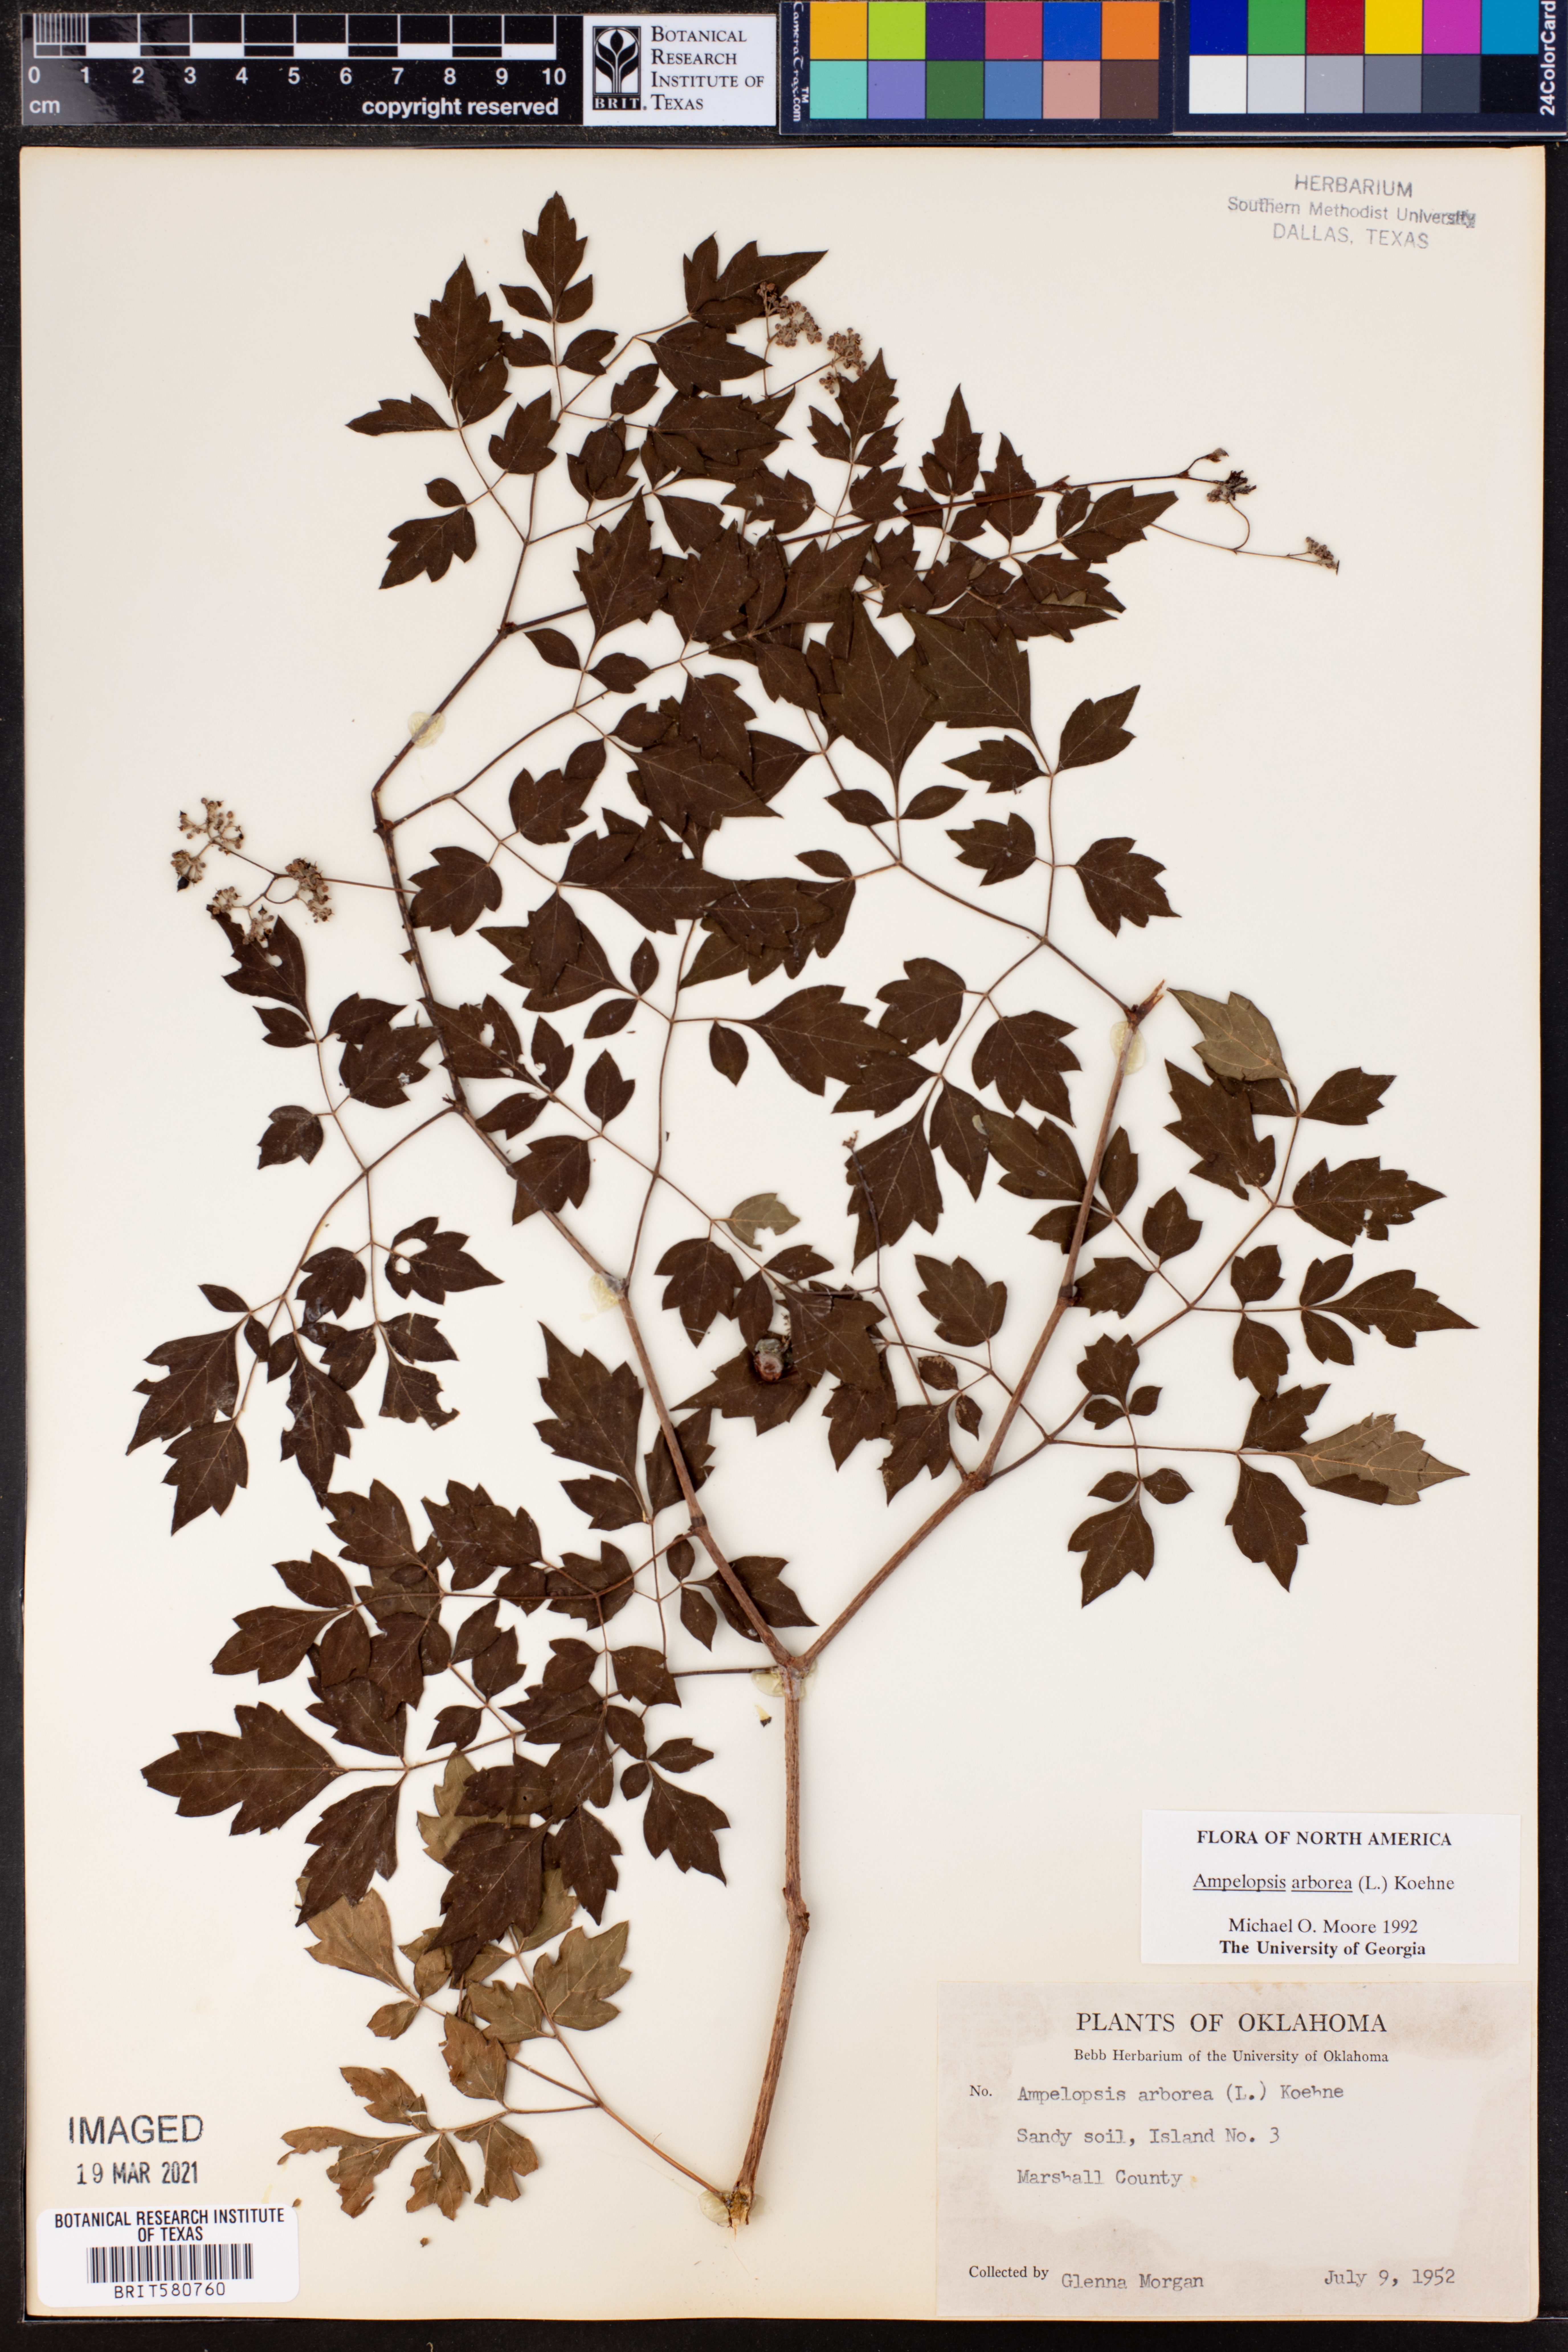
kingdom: Plantae
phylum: Tracheophyta
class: Magnoliopsida
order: Vitales
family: Vitaceae
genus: Nekemias
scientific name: Nekemias arborea
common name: Peppervine
